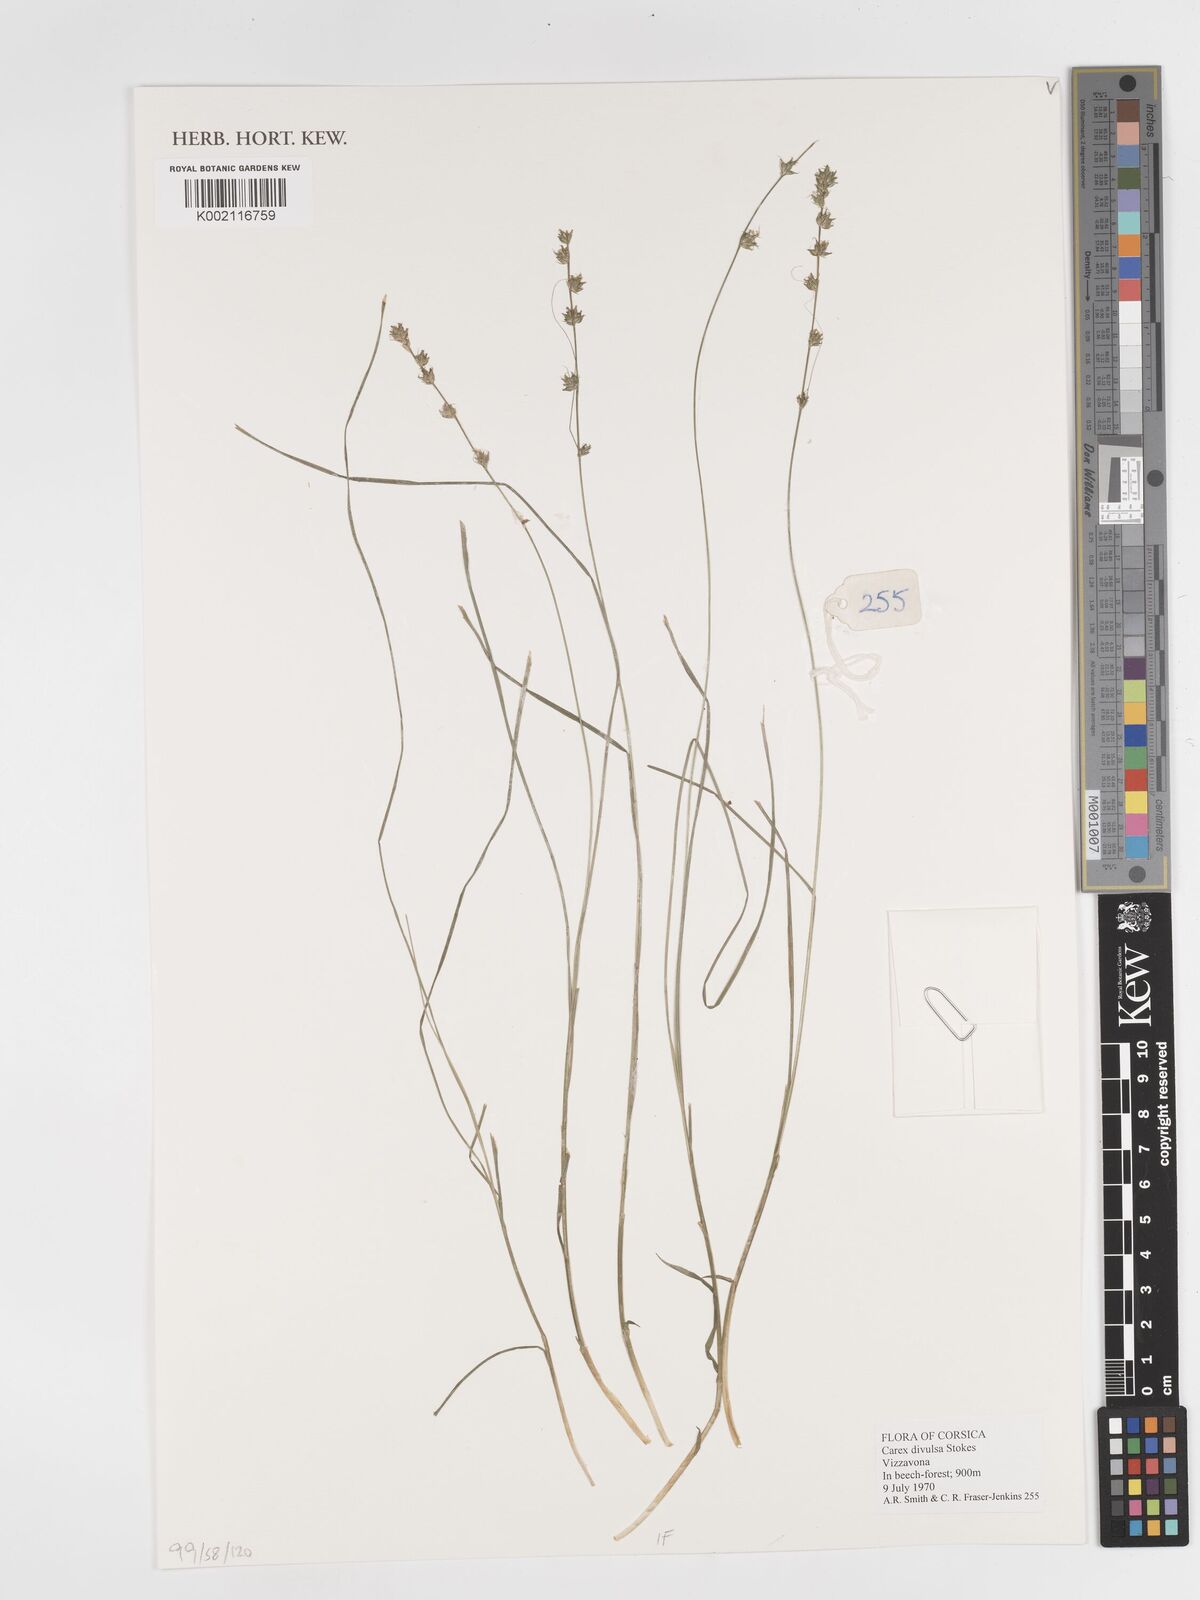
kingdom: Plantae
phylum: Tracheophyta
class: Liliopsida
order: Poales
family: Cyperaceae
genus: Carex
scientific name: Carex divulsa
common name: Grassland sedge
